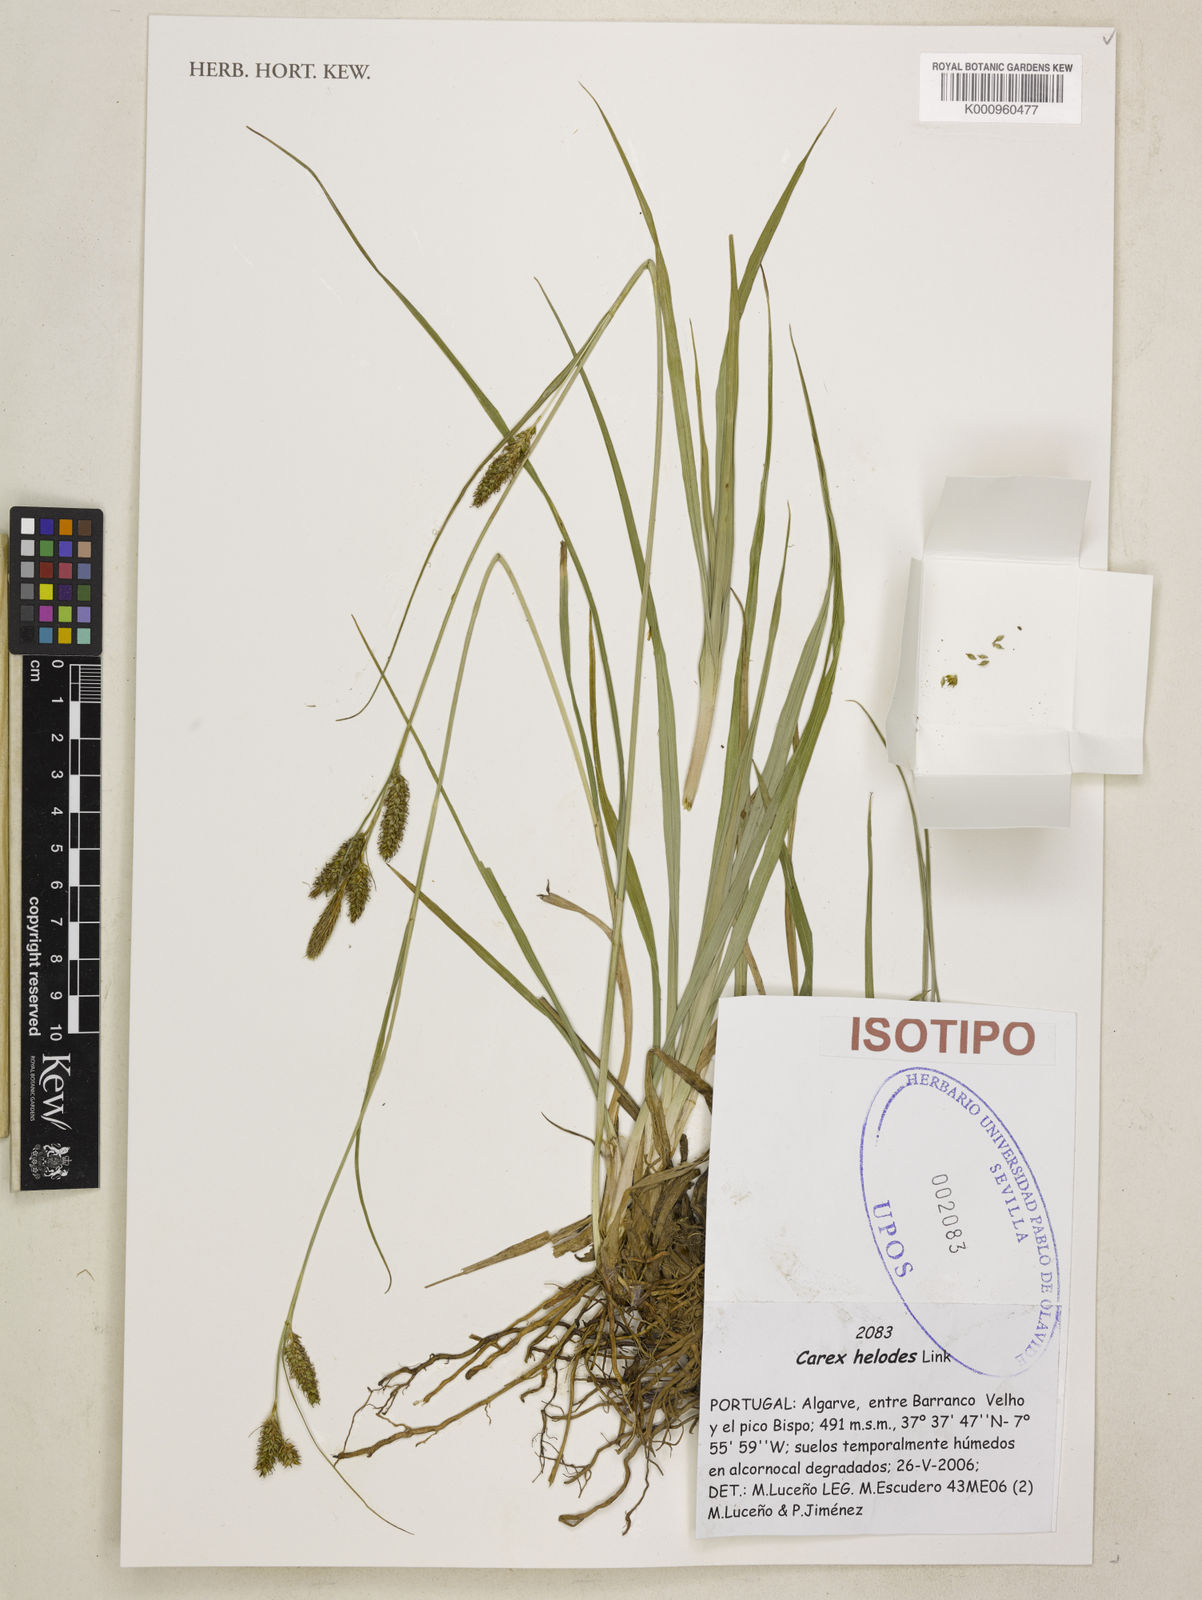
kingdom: Plantae
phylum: Tracheophyta
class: Liliopsida
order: Poales
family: Cyperaceae
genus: Carex
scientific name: Carex laevigata
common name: Smooth-stalked sedge
